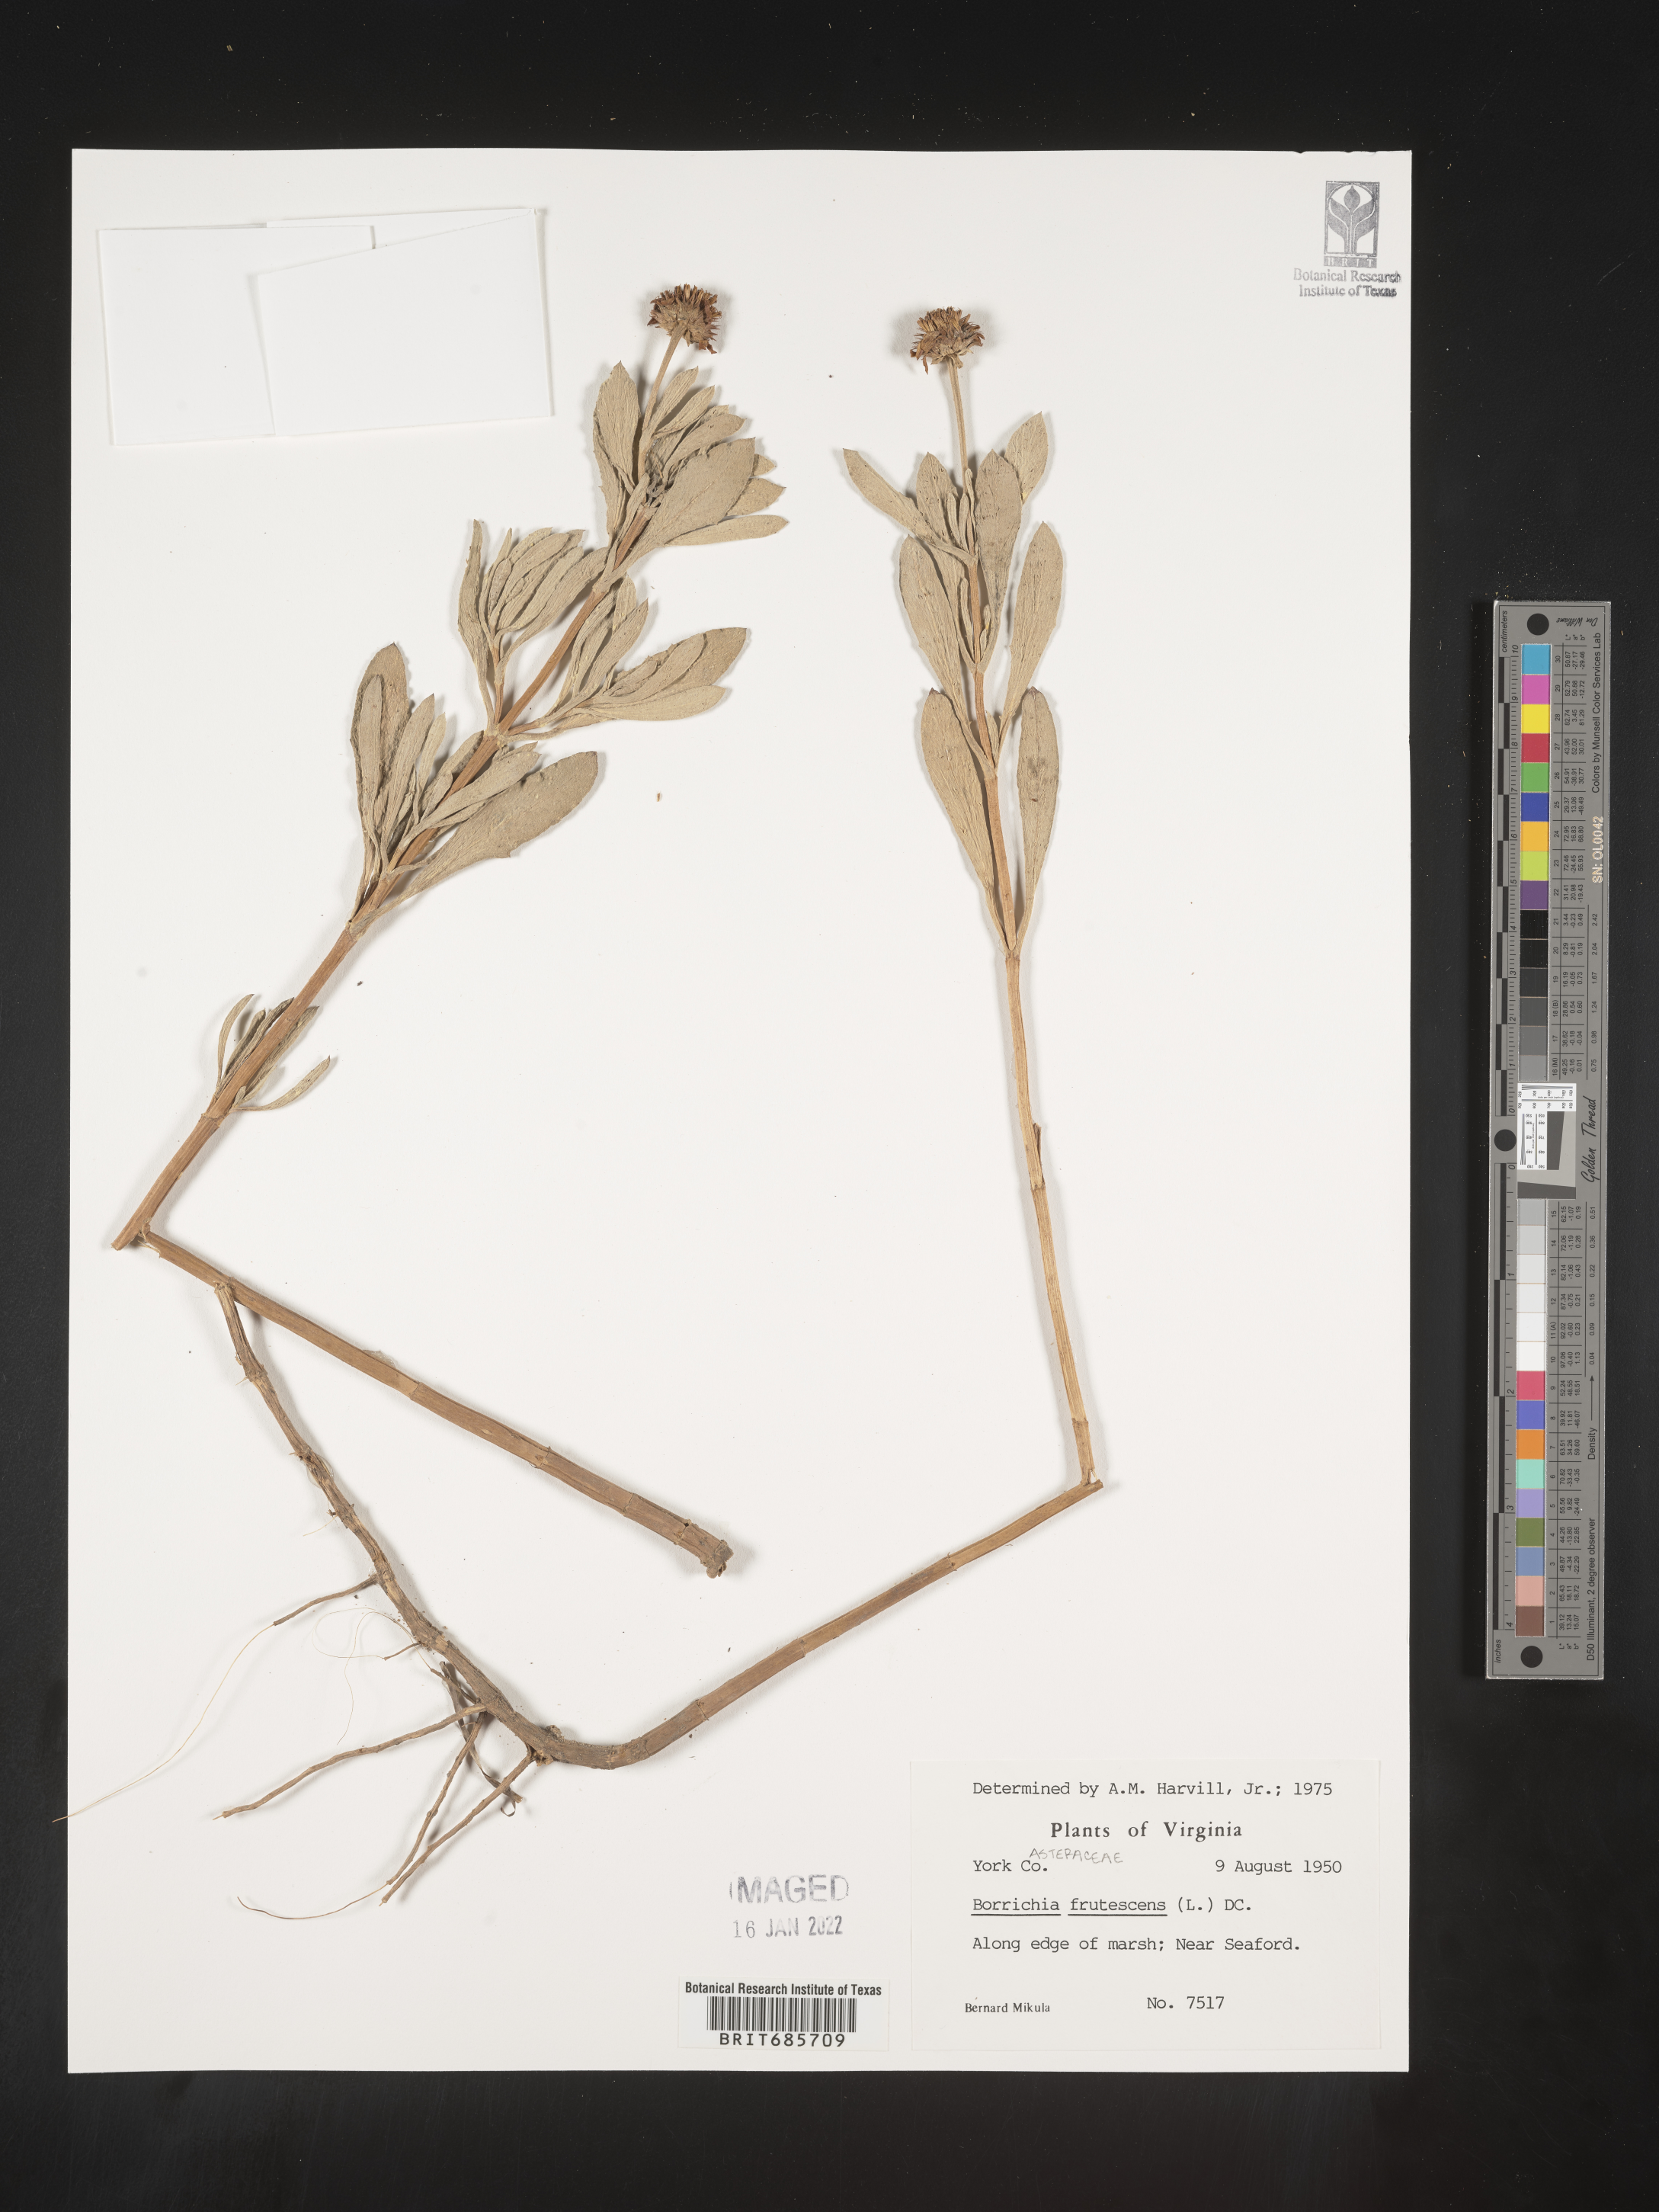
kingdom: Plantae
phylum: Tracheophyta
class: Magnoliopsida
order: Asterales
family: Asteraceae
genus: Borrichia
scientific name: Borrichia frutescens
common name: Sea oxeye
